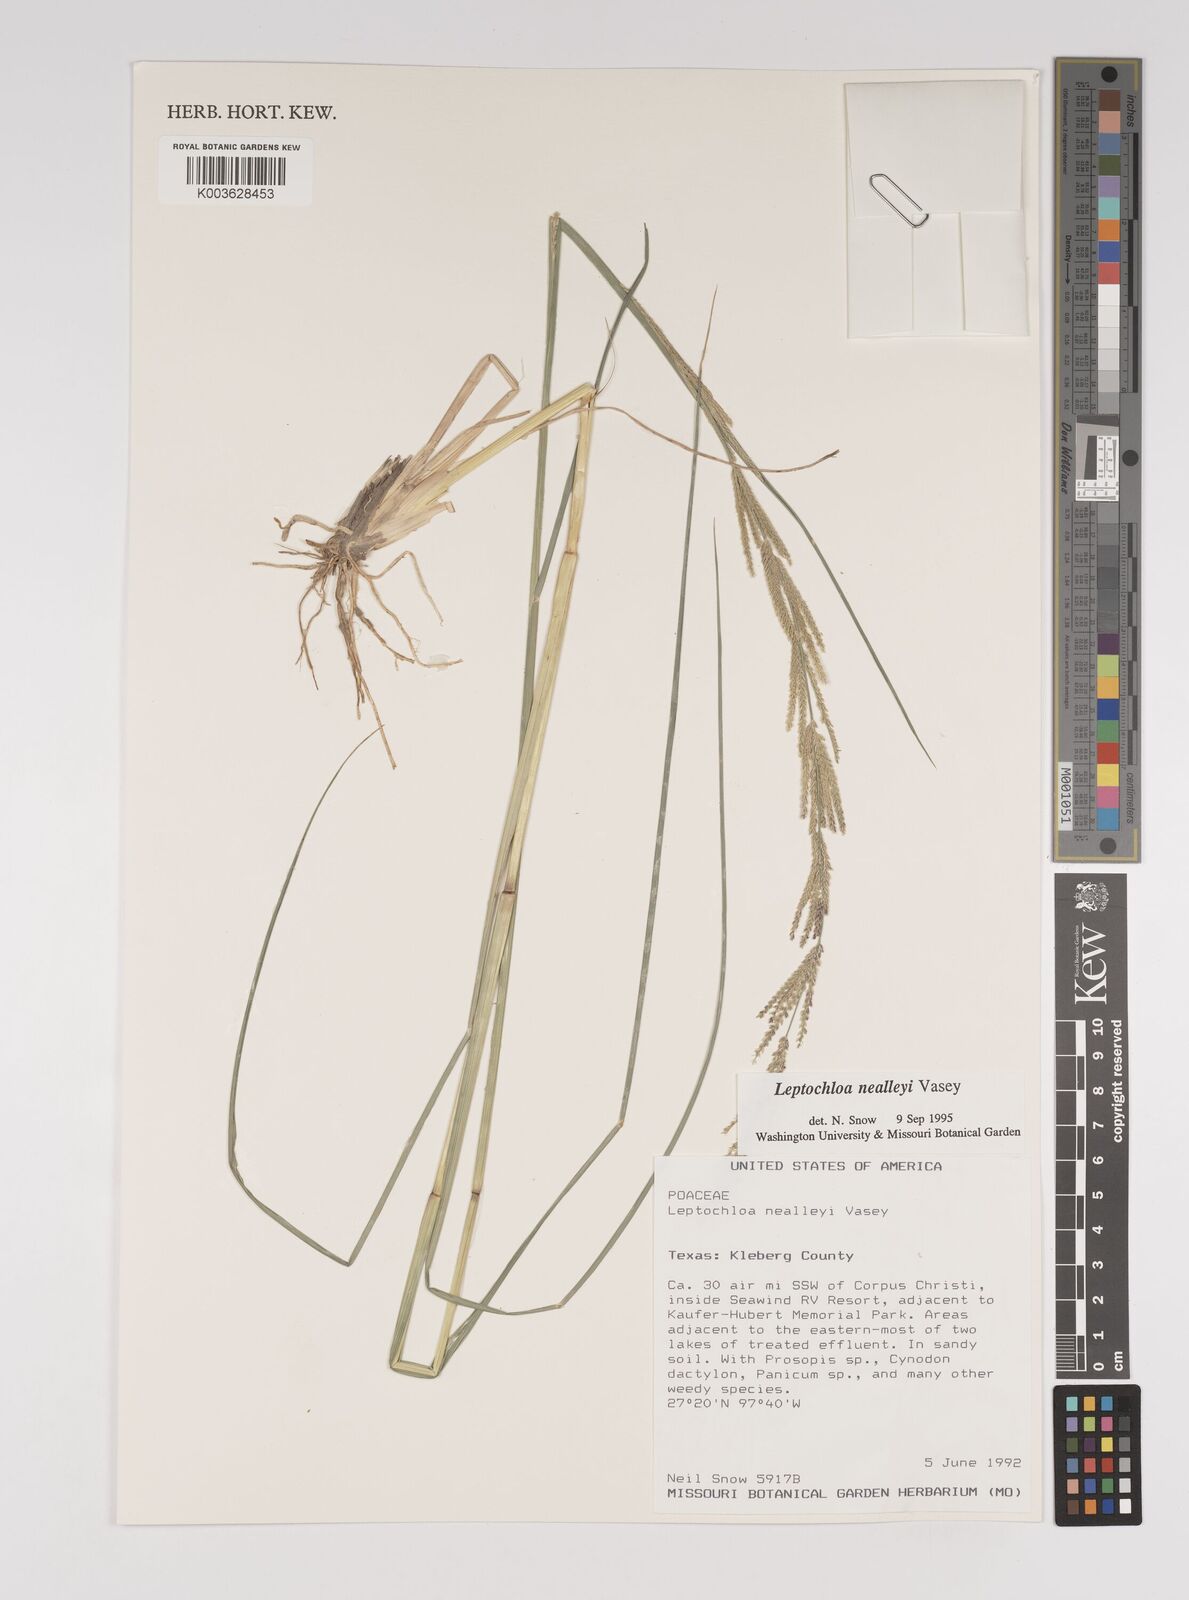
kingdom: Plantae
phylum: Tracheophyta
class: Liliopsida
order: Poales
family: Poaceae
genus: Leptochloa
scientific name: Leptochloa mucronata
